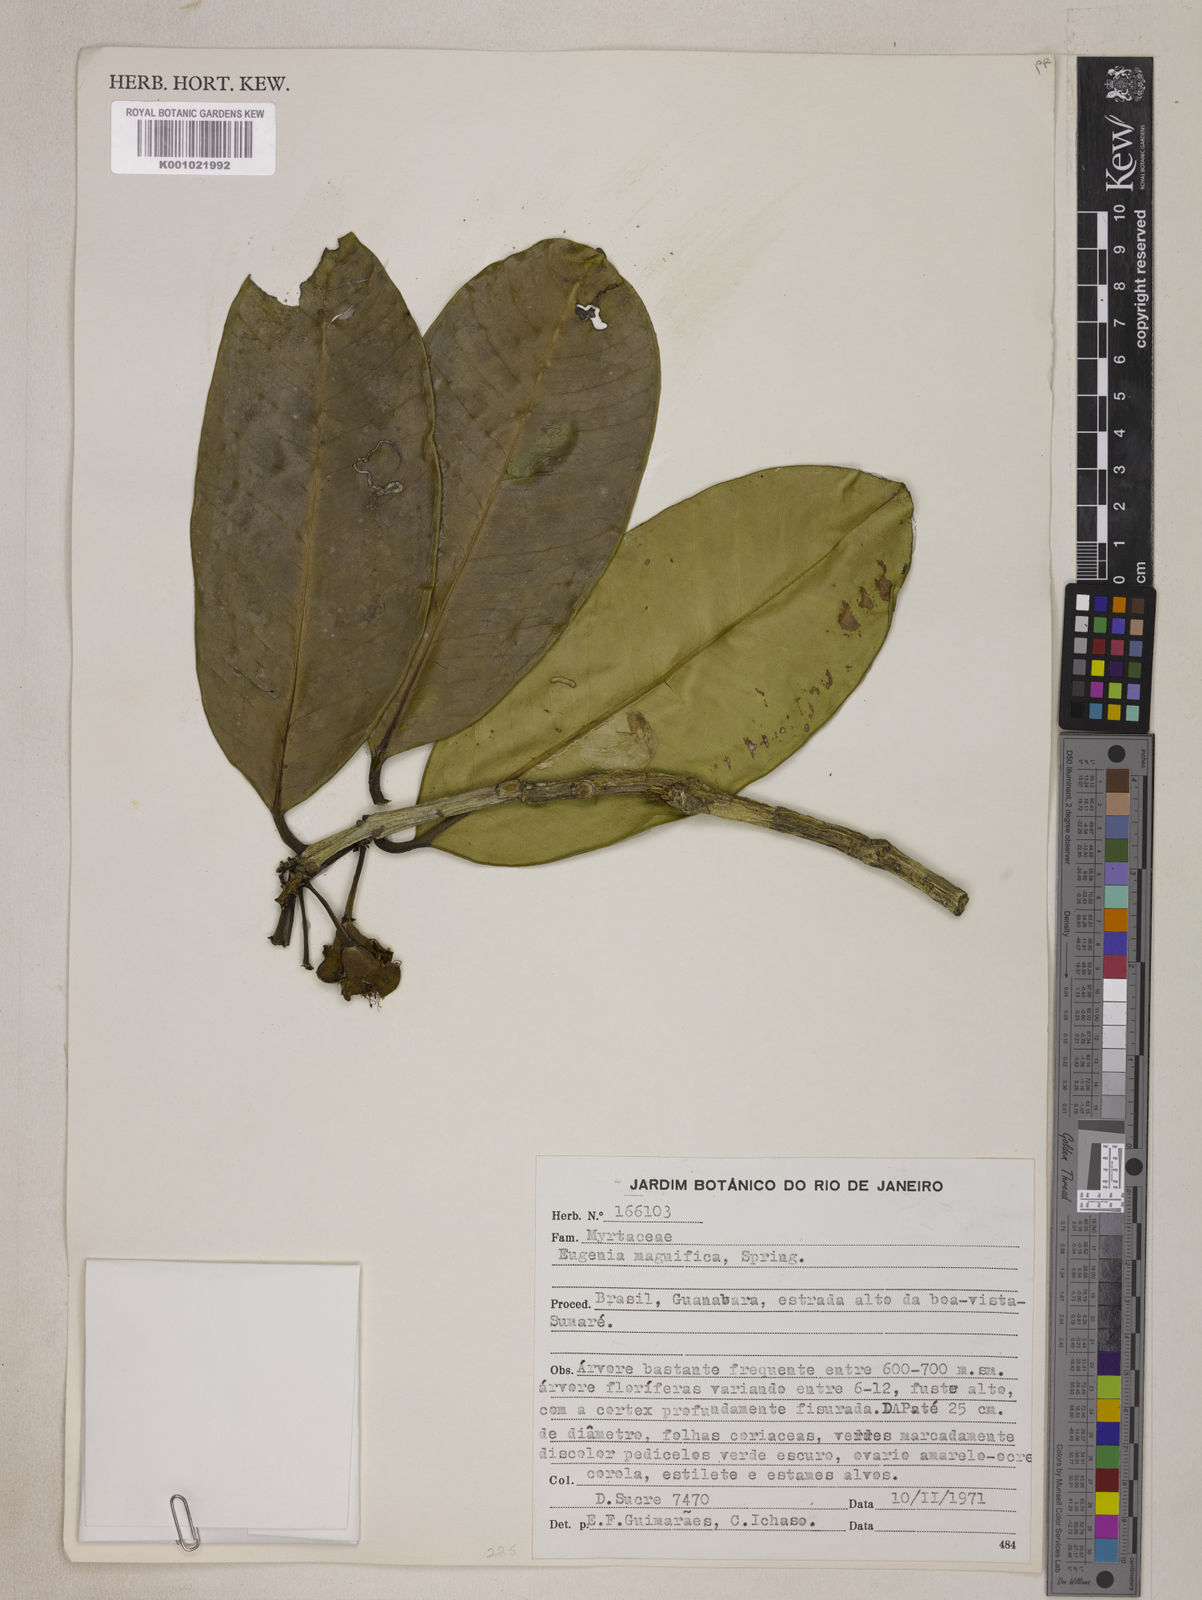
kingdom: Plantae
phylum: Tracheophyta
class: Magnoliopsida
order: Myrtales
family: Myrtaceae
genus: Eugenia
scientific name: Eugenia
